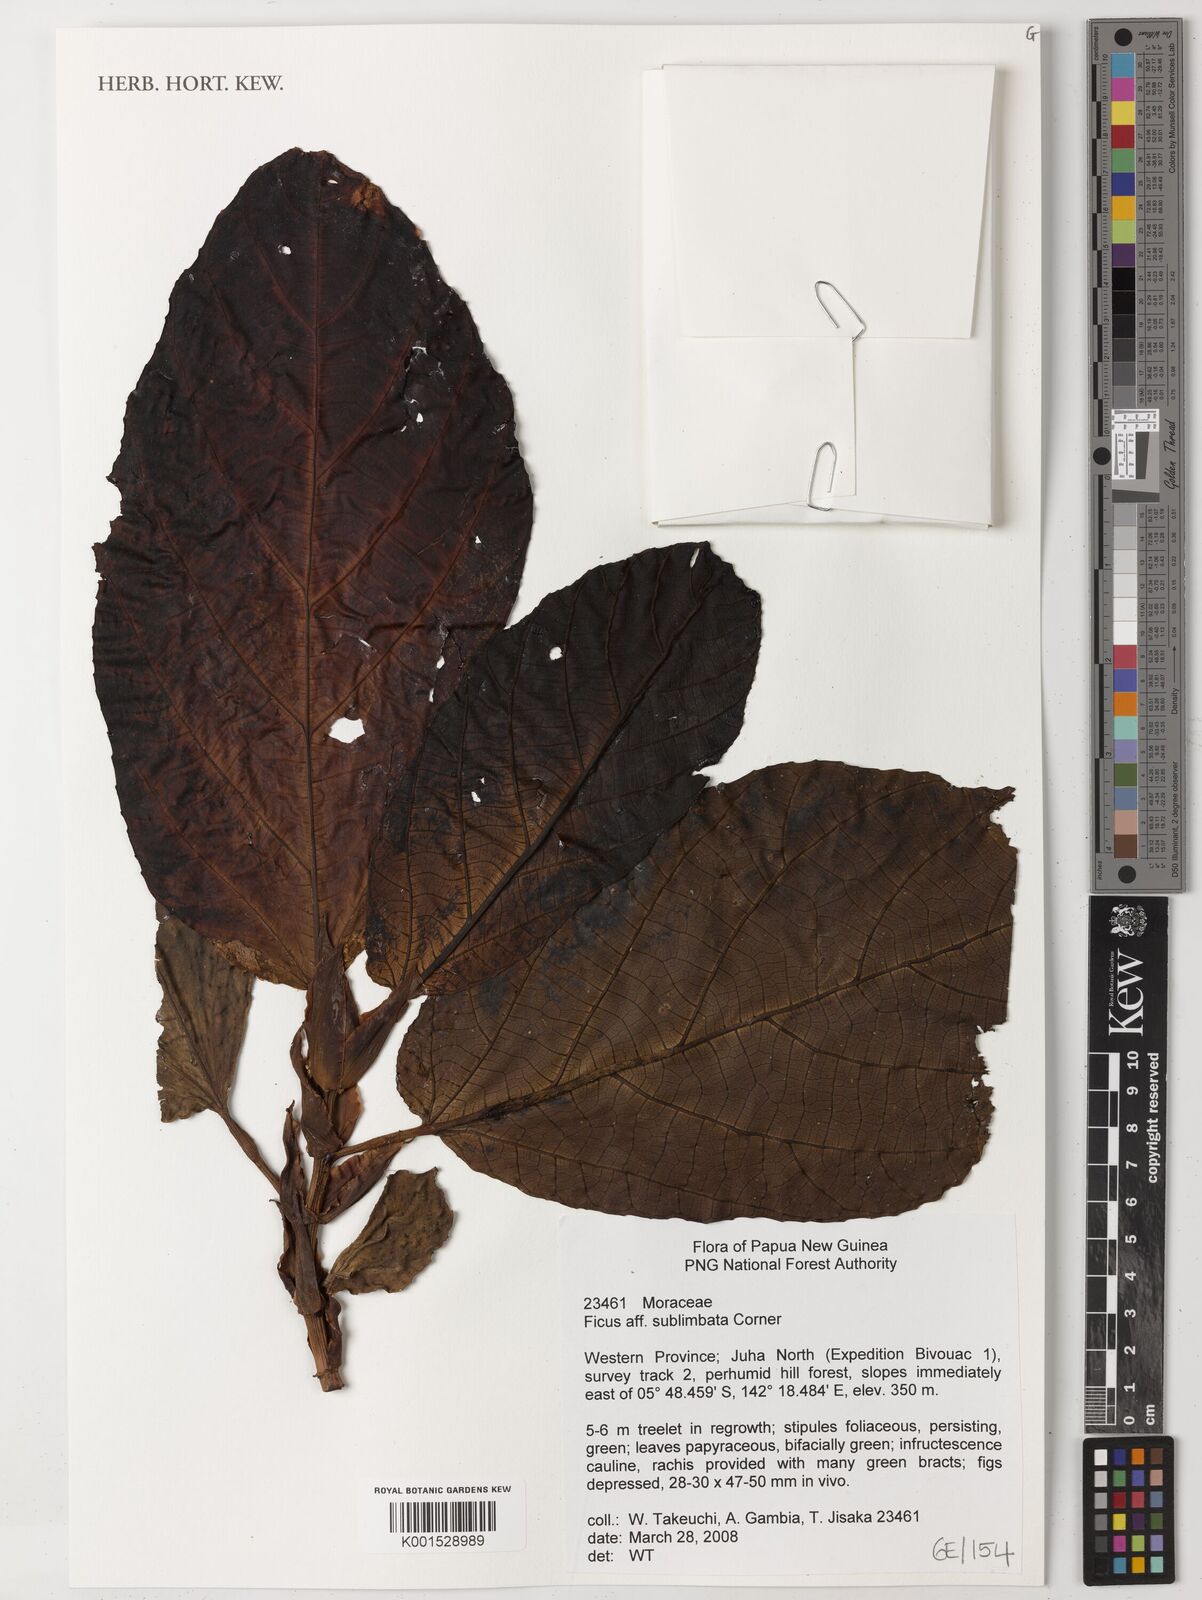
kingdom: Plantae
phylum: Tracheophyta
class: Magnoliopsida
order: Rosales
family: Moraceae
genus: Ficus
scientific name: Ficus sublimbata
